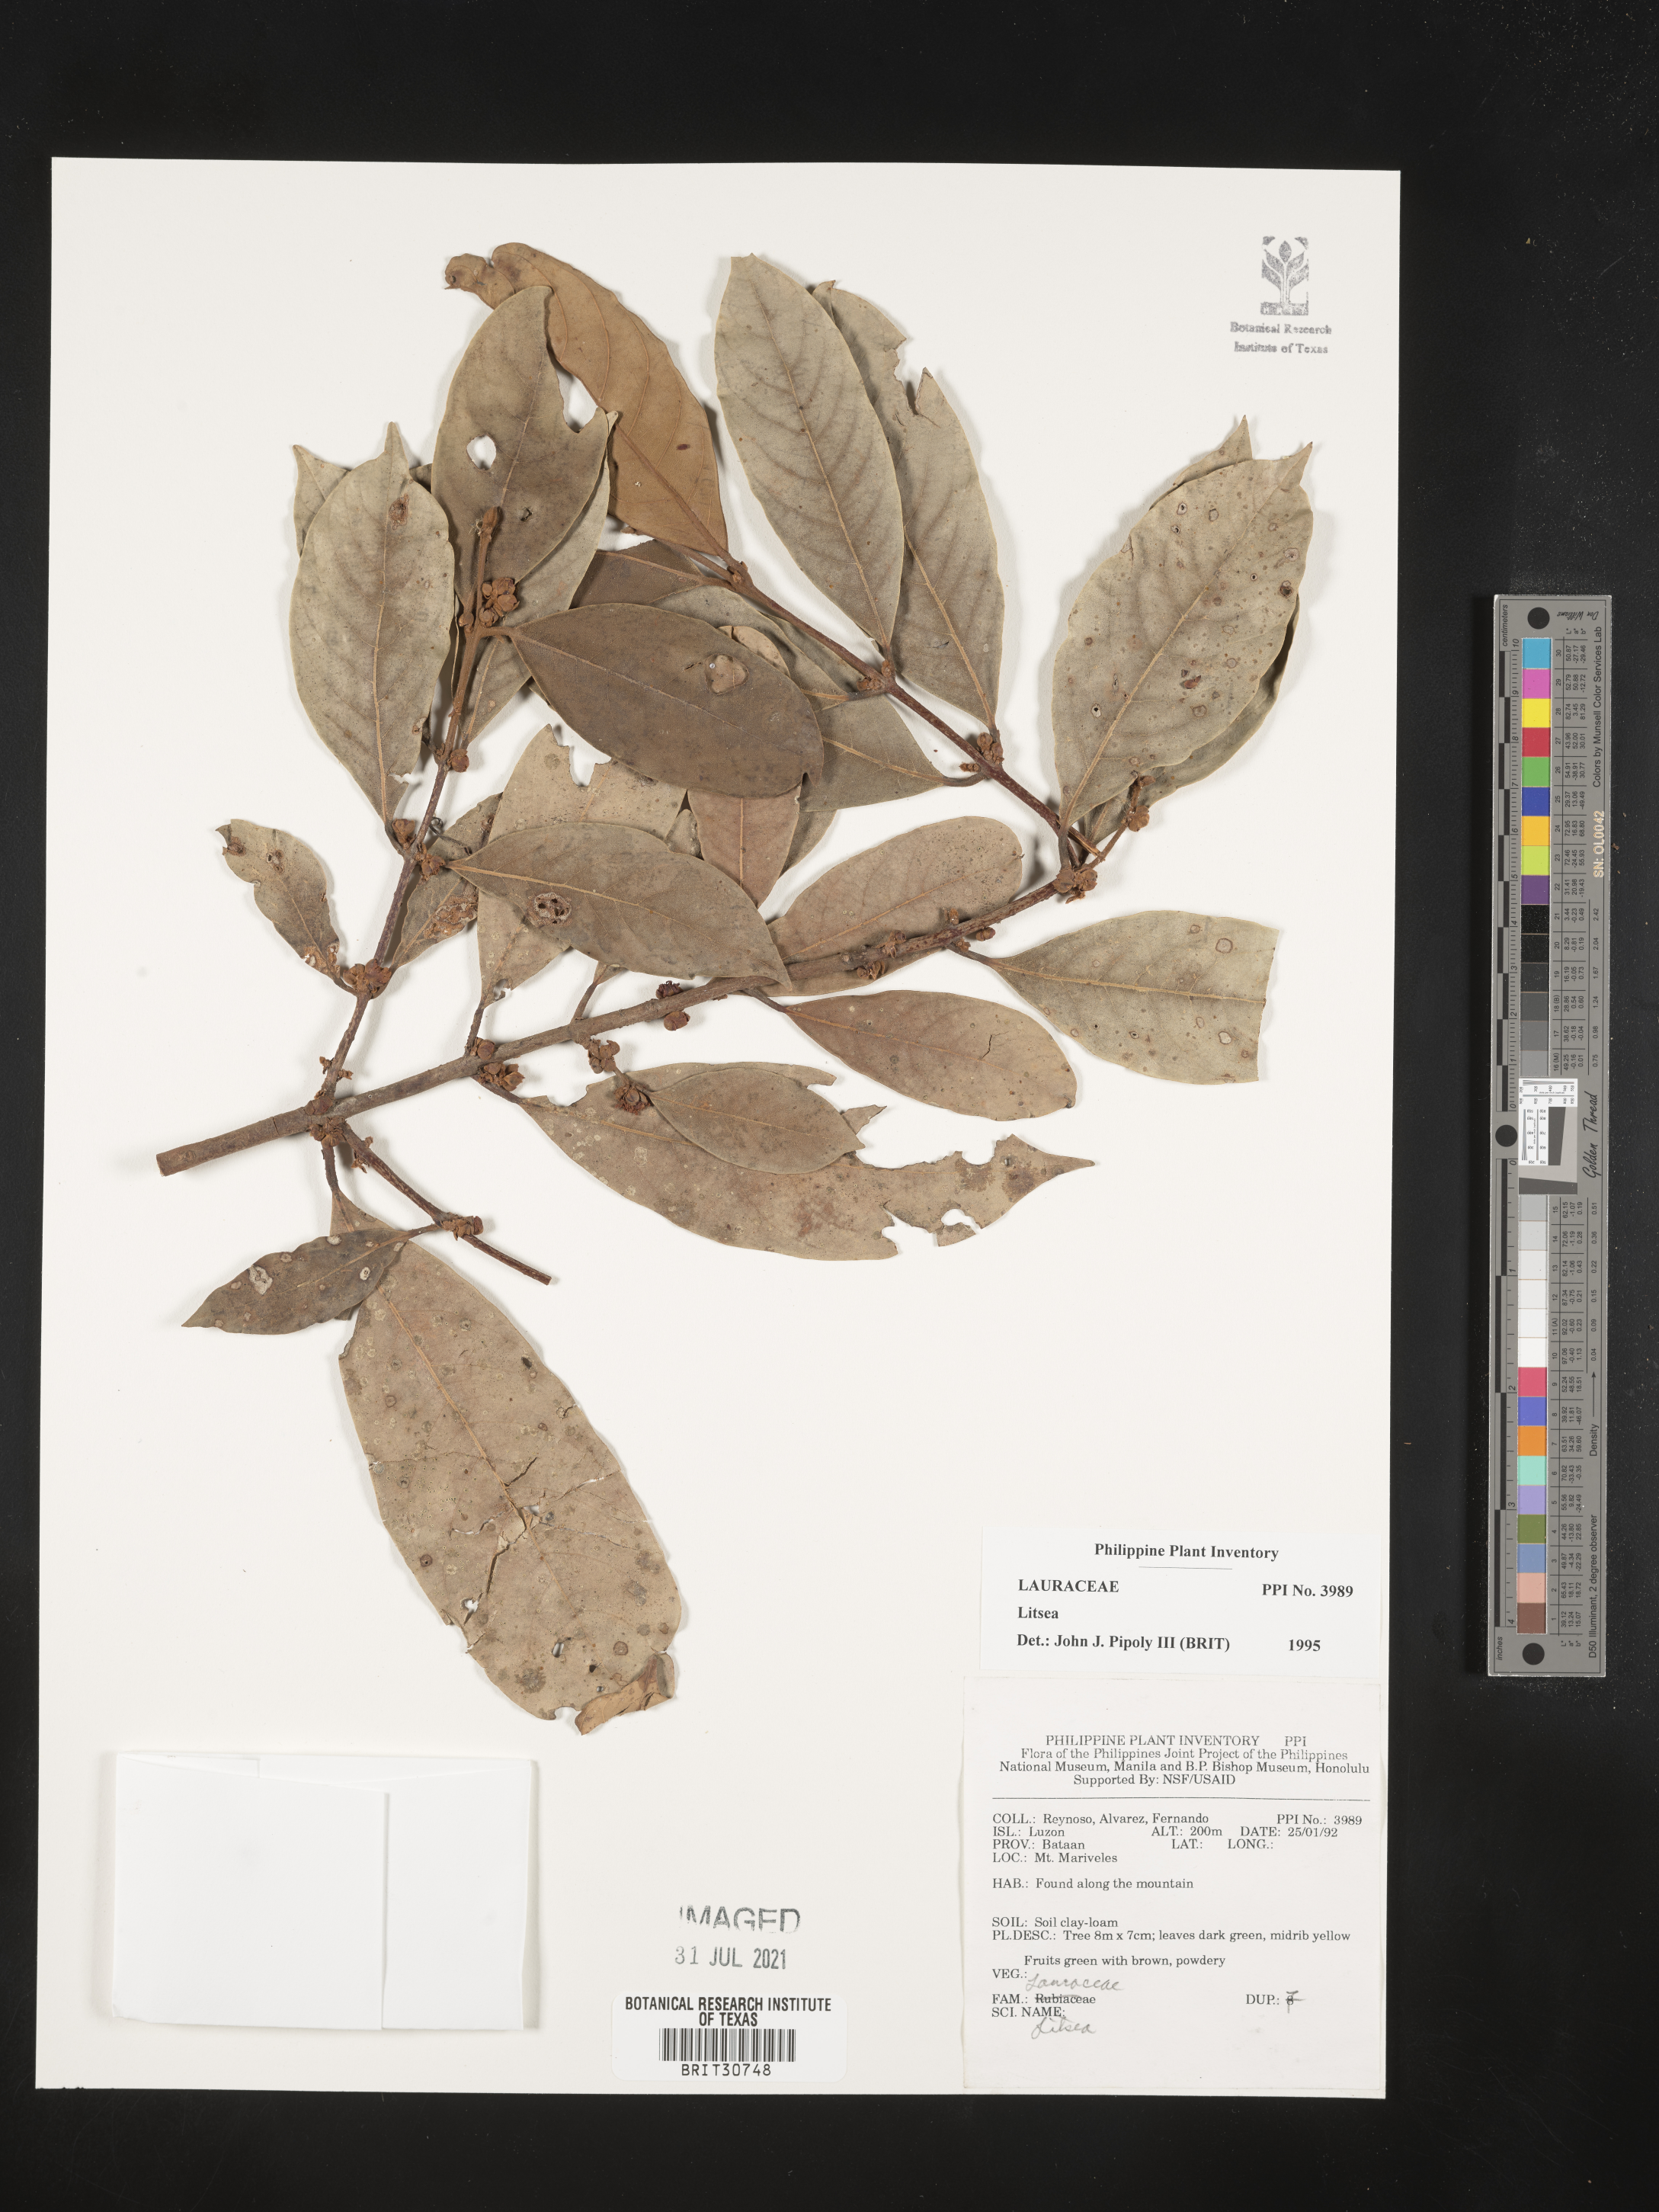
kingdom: Plantae
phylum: Tracheophyta
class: Magnoliopsida
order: Laurales
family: Lauraceae
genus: Litsea
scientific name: Litsea
